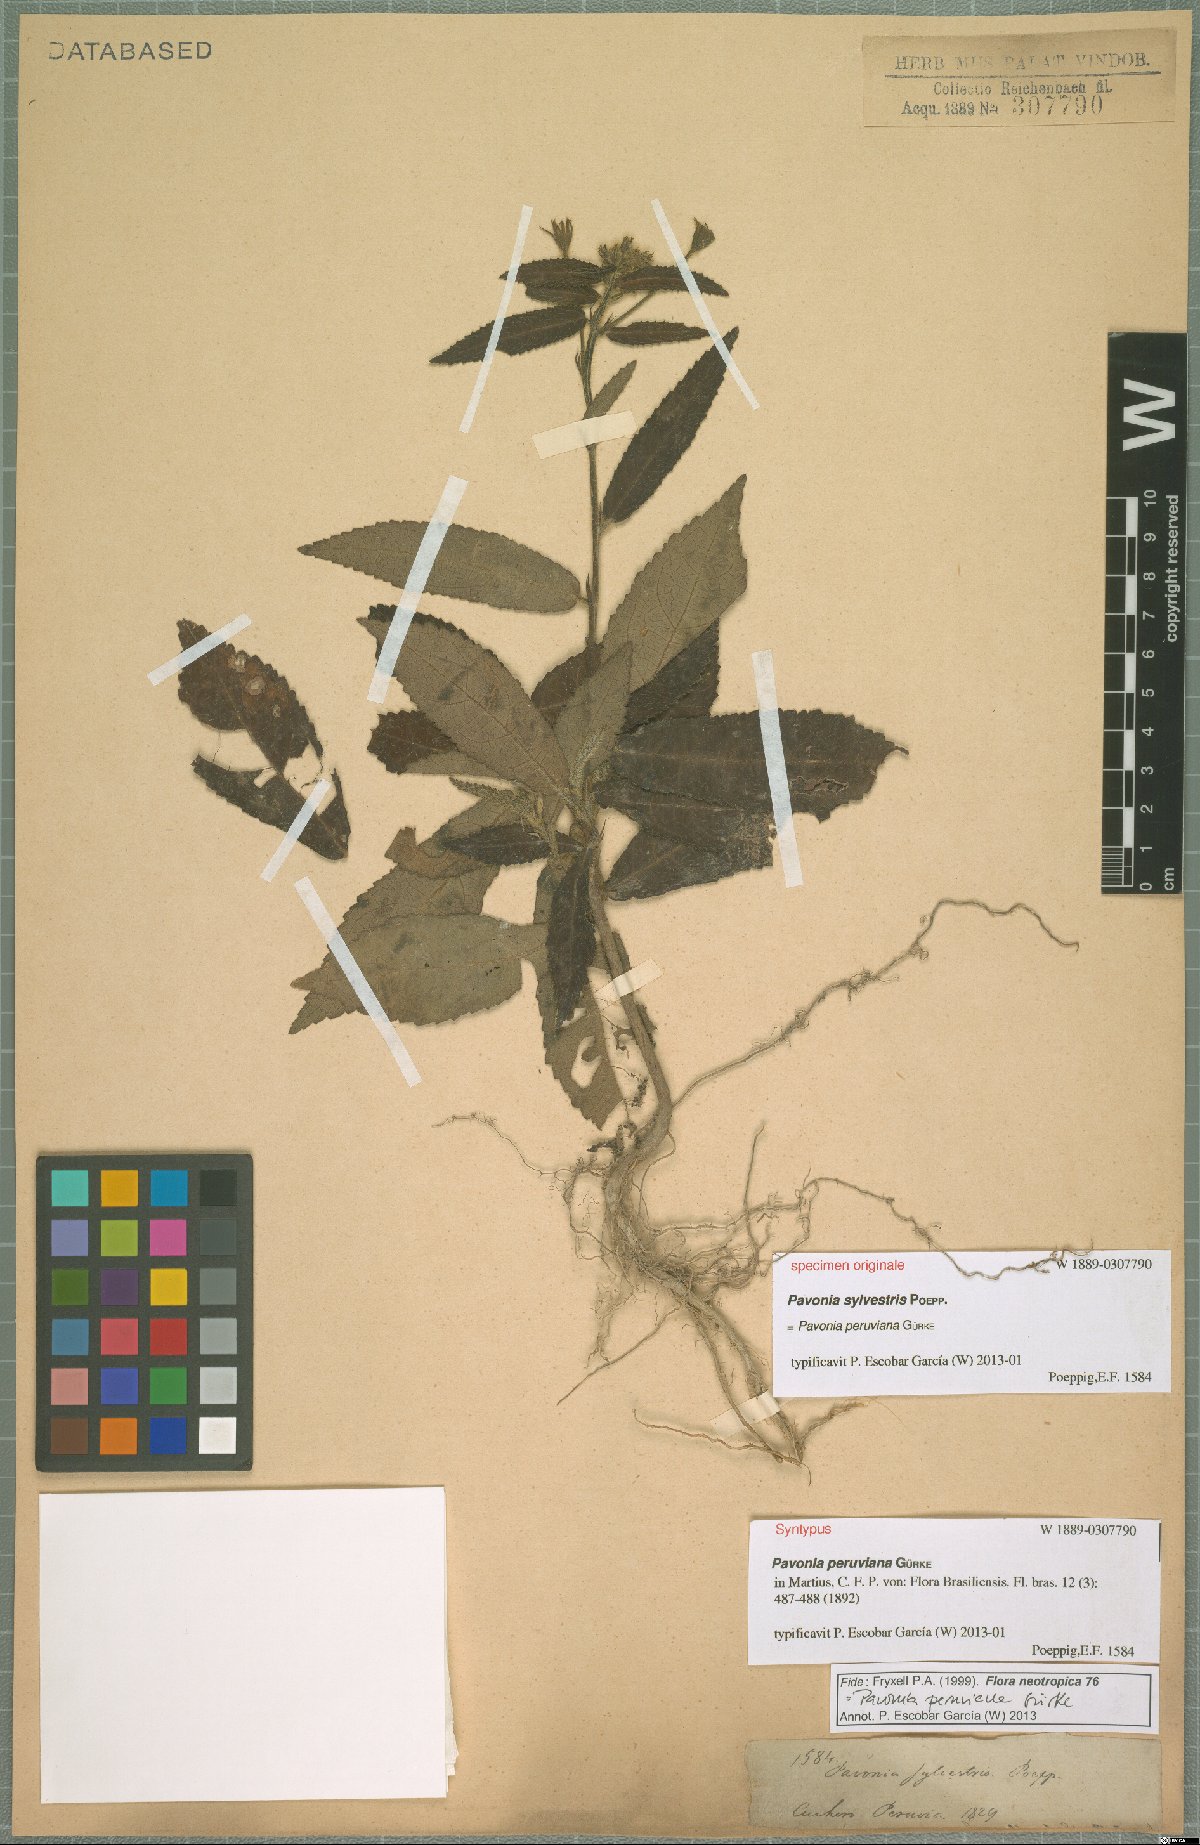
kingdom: Plantae
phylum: Tracheophyta
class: Magnoliopsida
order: Malvales
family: Malvaceae
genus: Pavonia
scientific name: Pavonia peruviana
